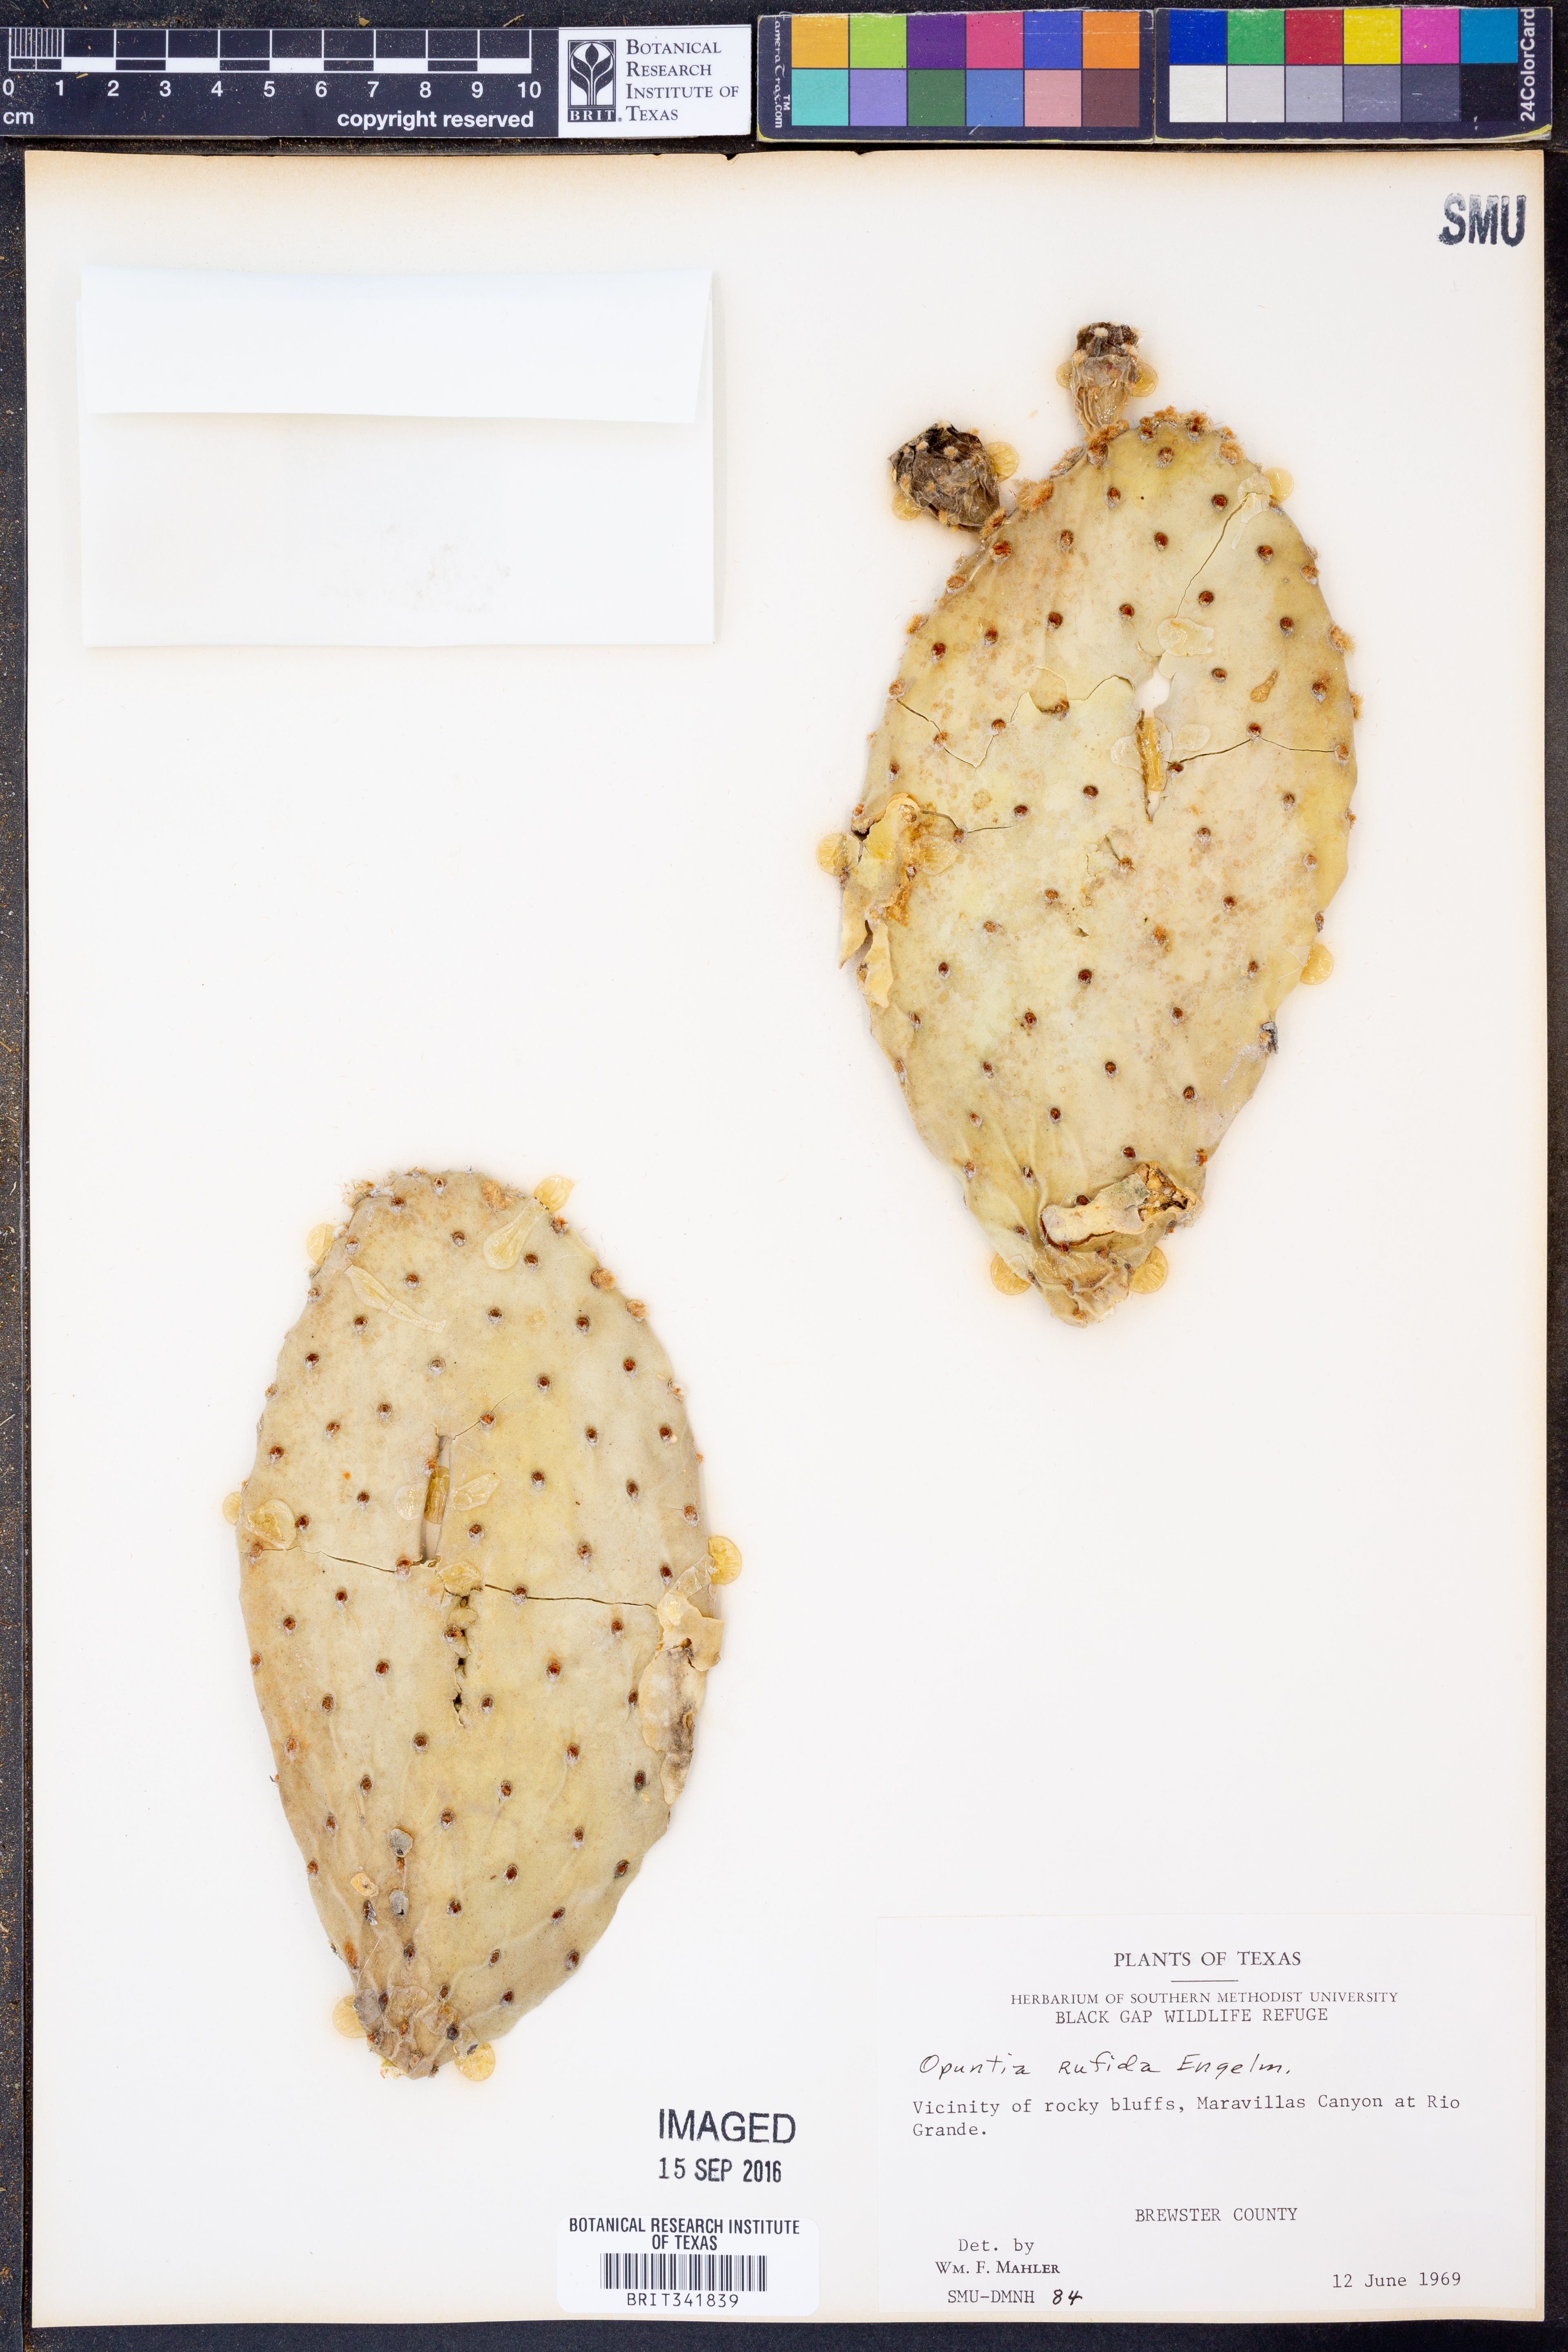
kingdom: Plantae
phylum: Tracheophyta
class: Magnoliopsida
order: Caryophyllales
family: Cactaceae
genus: Opuntia
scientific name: Opuntia rufida
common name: Blind pricklypear
